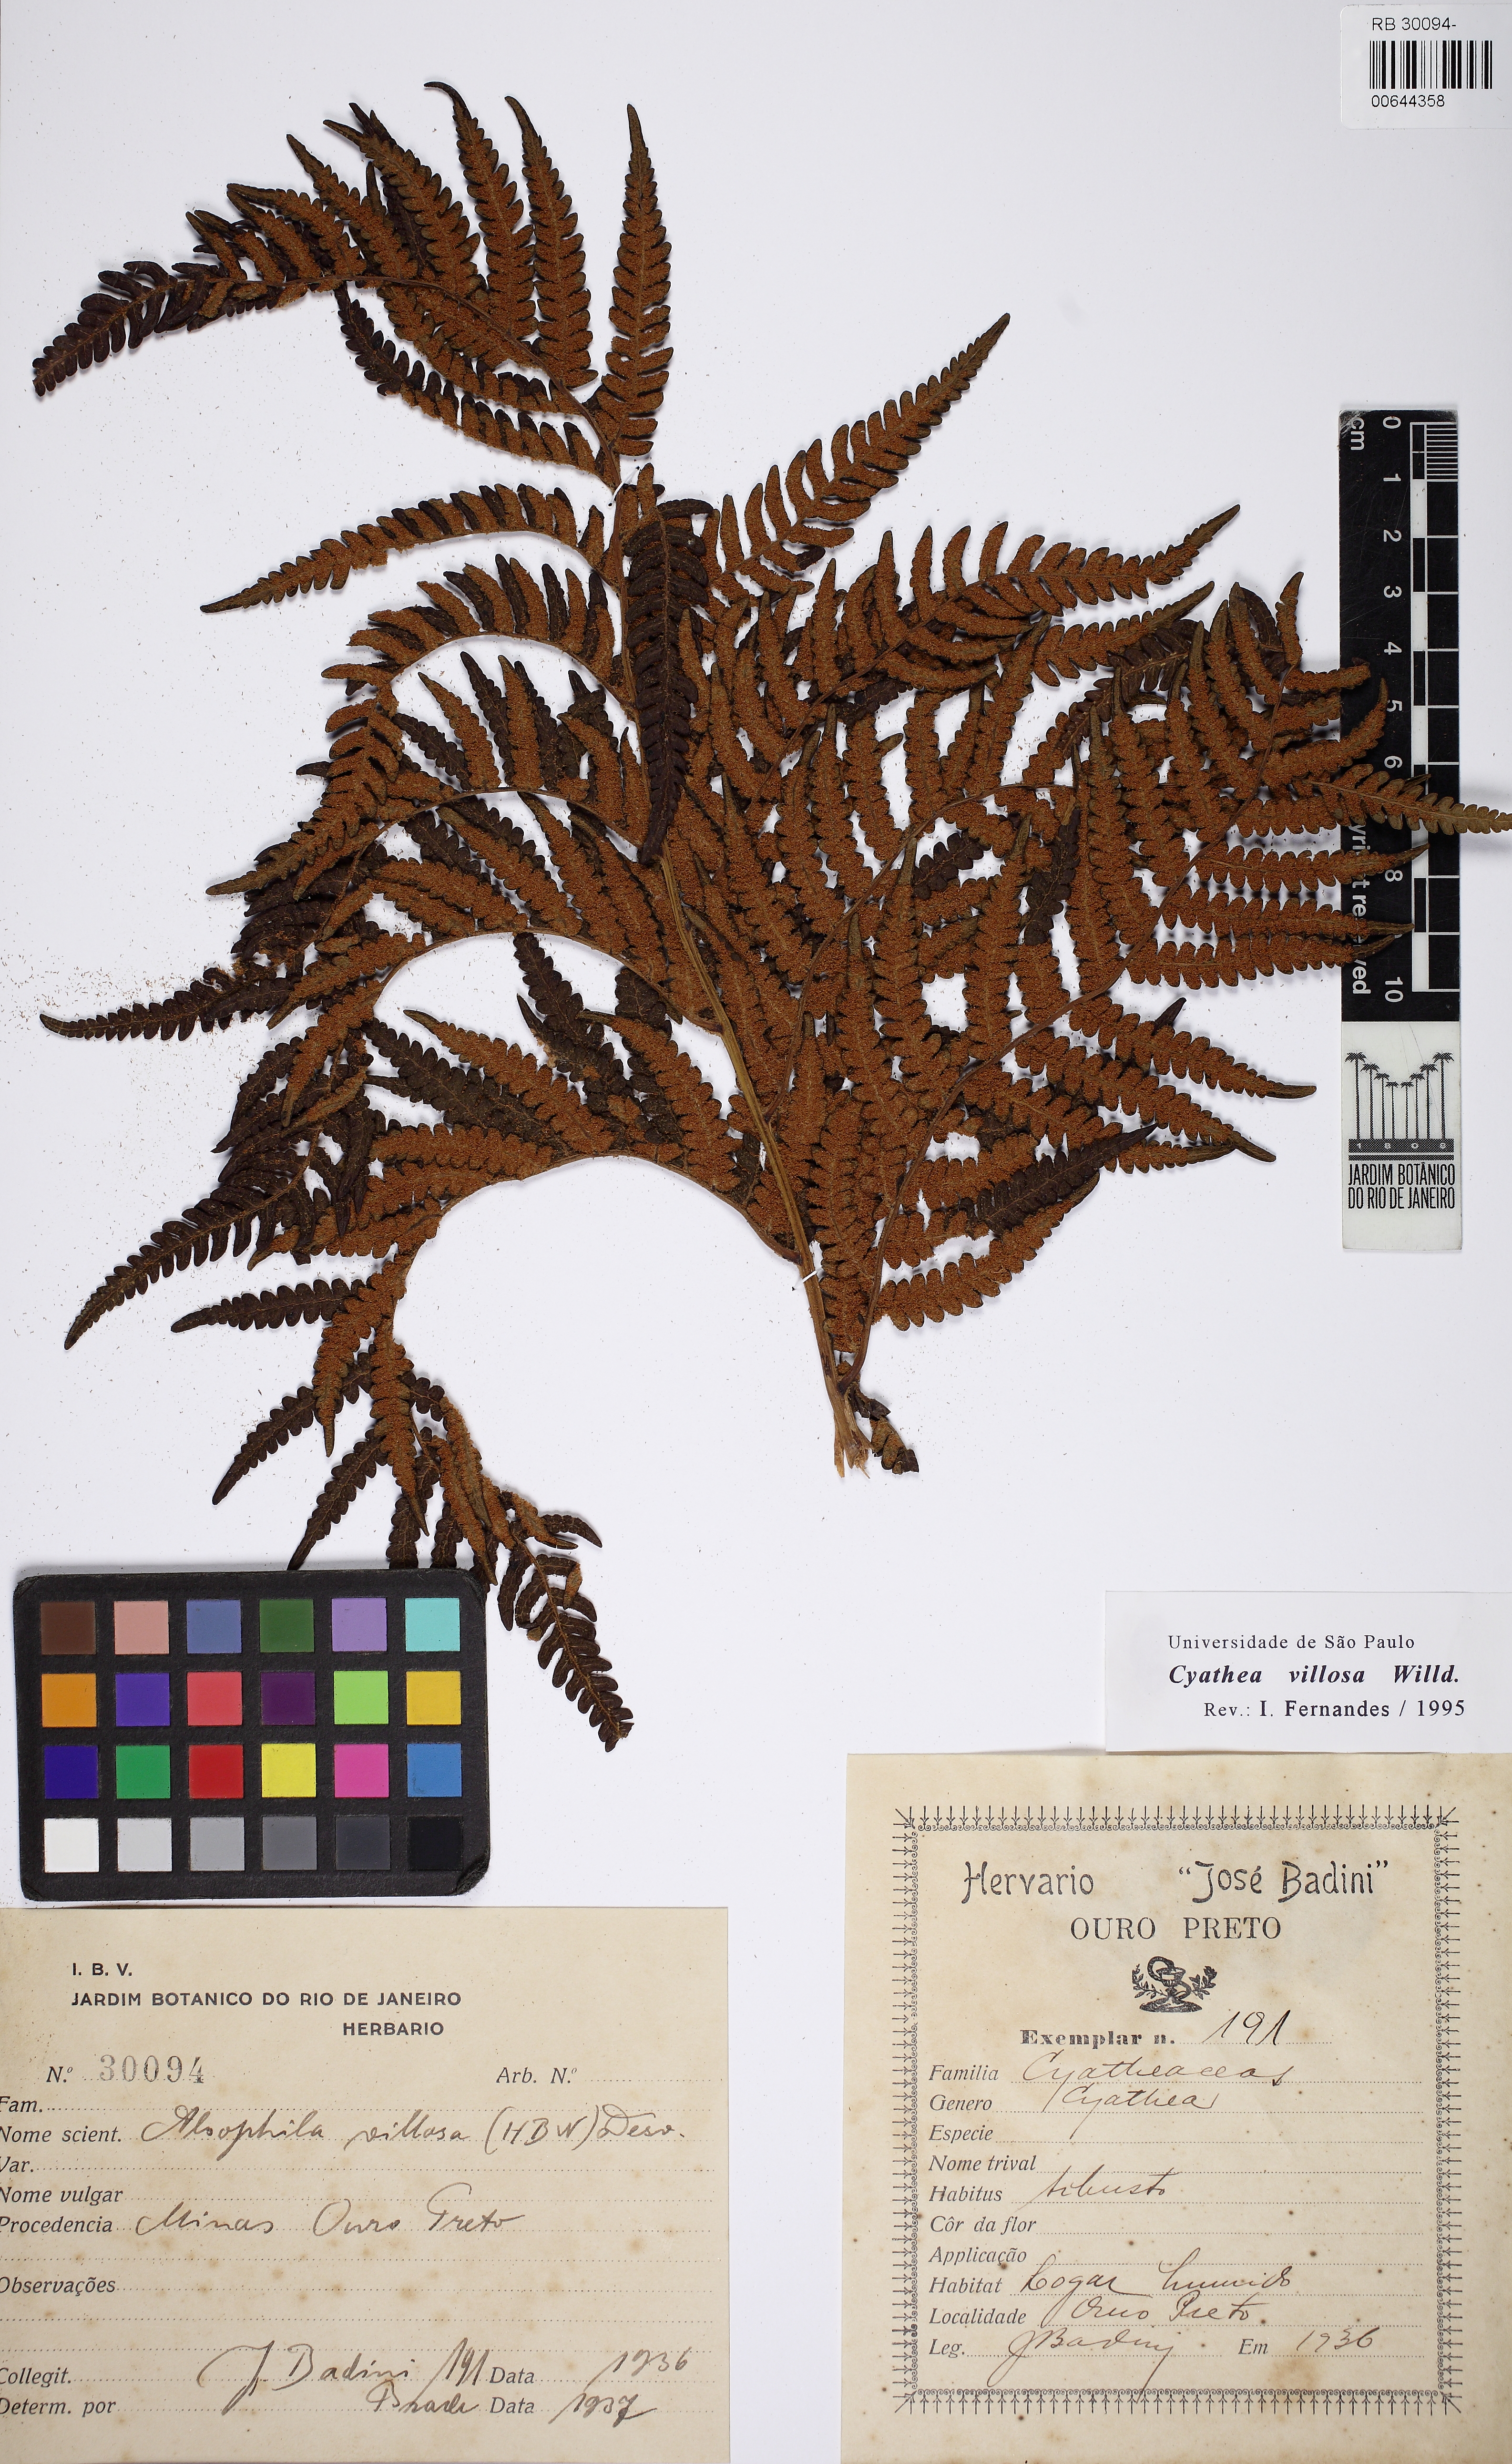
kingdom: Plantae
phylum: Tracheophyta
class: Polypodiopsida
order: Cyatheales
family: Cyatheaceae
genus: Cyathea
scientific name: Cyathea villosa
